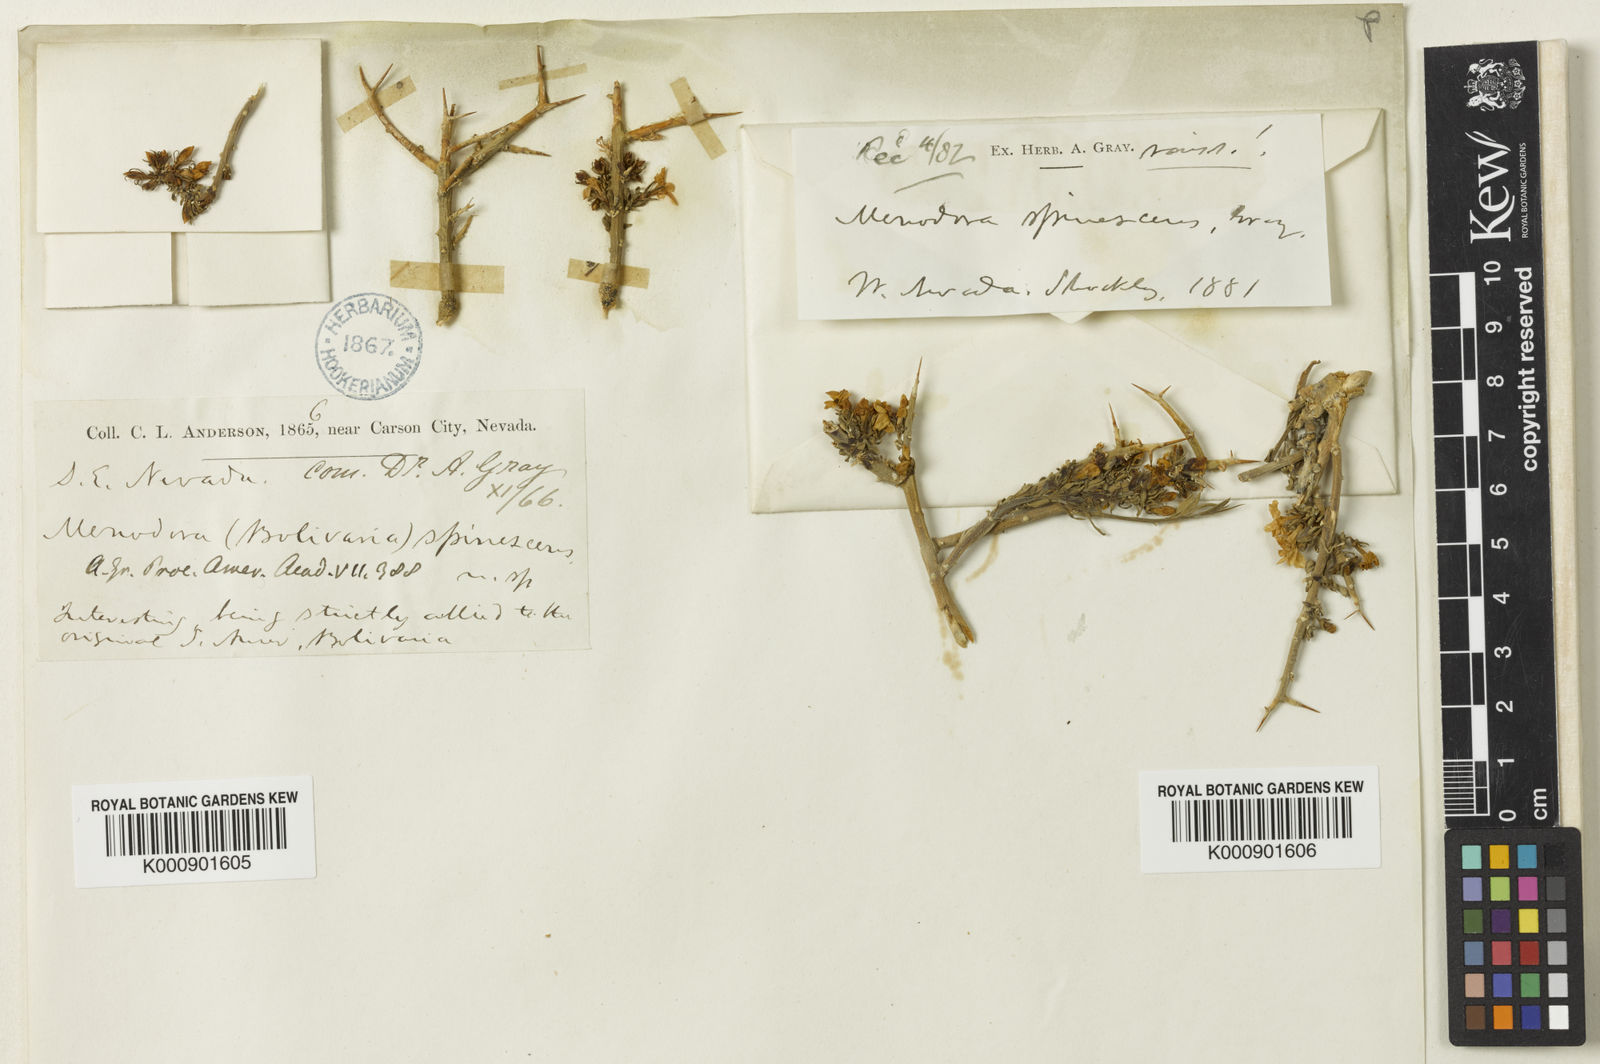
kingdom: Plantae
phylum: Tracheophyta
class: Magnoliopsida
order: Lamiales
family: Oleaceae
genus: Menodora
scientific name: Menodora spinescens
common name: Spiny menodora
